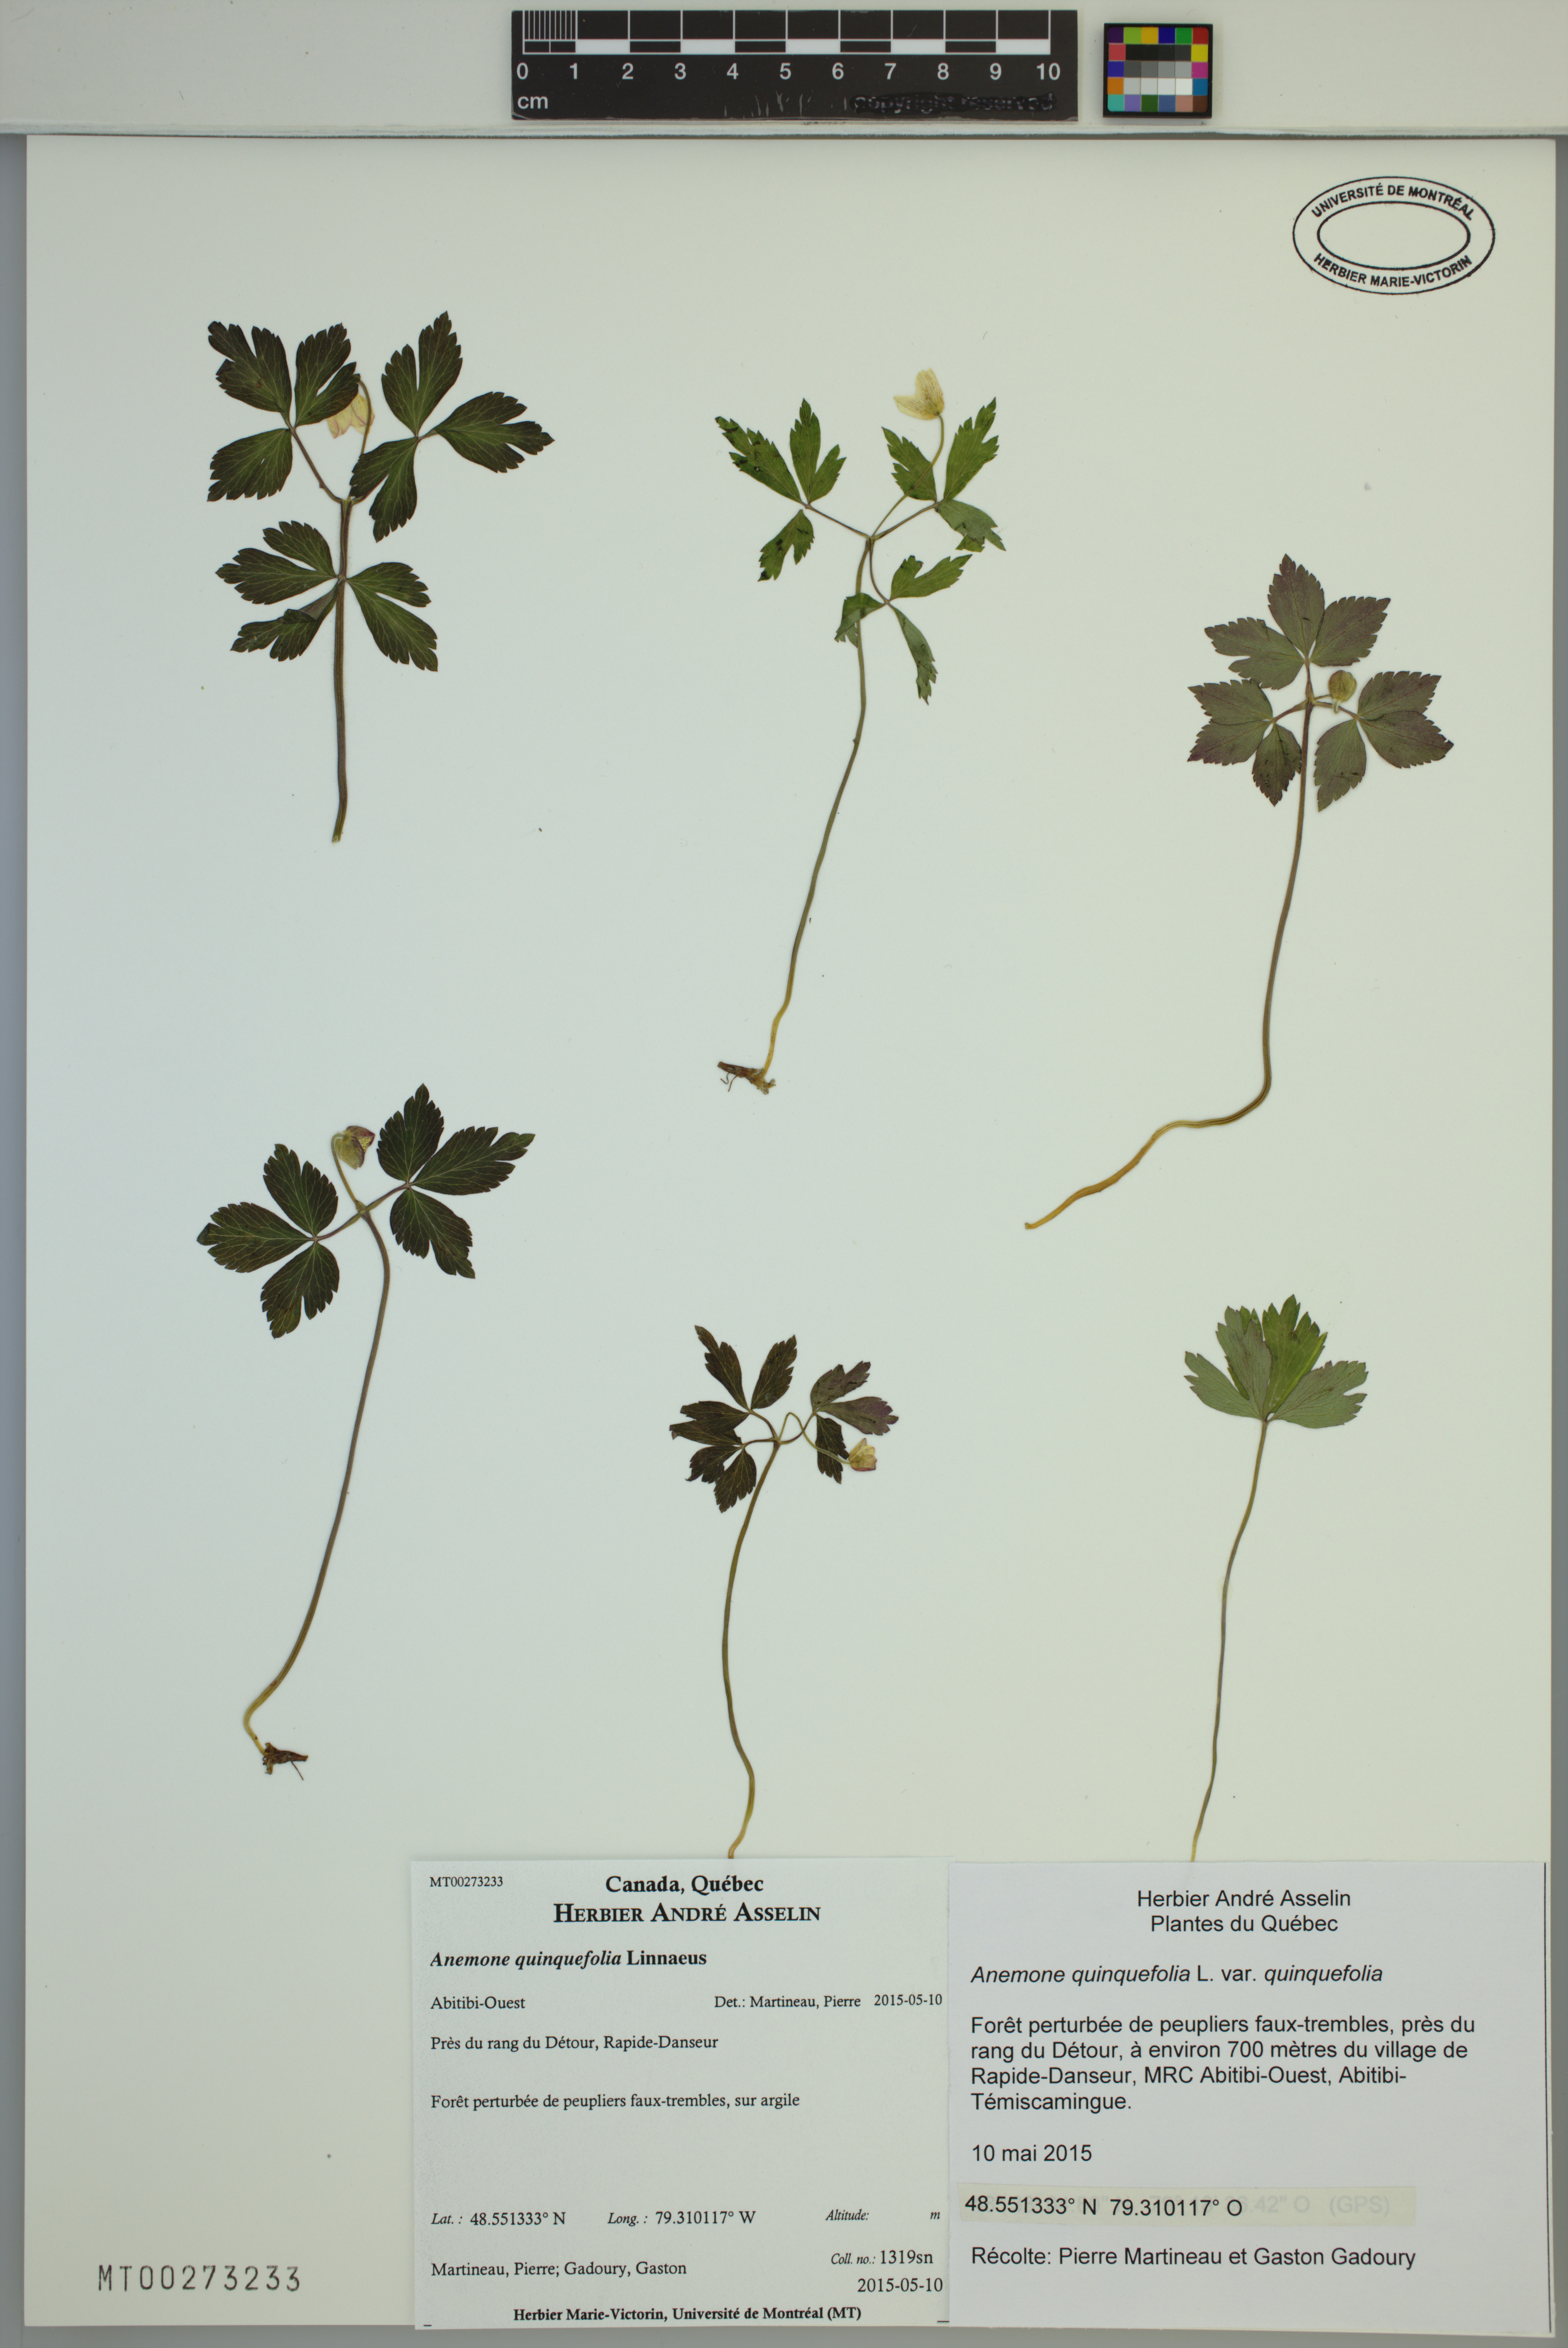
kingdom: Plantae
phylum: Tracheophyta
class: Magnoliopsida
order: Ranunculales
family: Ranunculaceae
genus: Anemone
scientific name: Anemone quinquefolia
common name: Wood anemone
